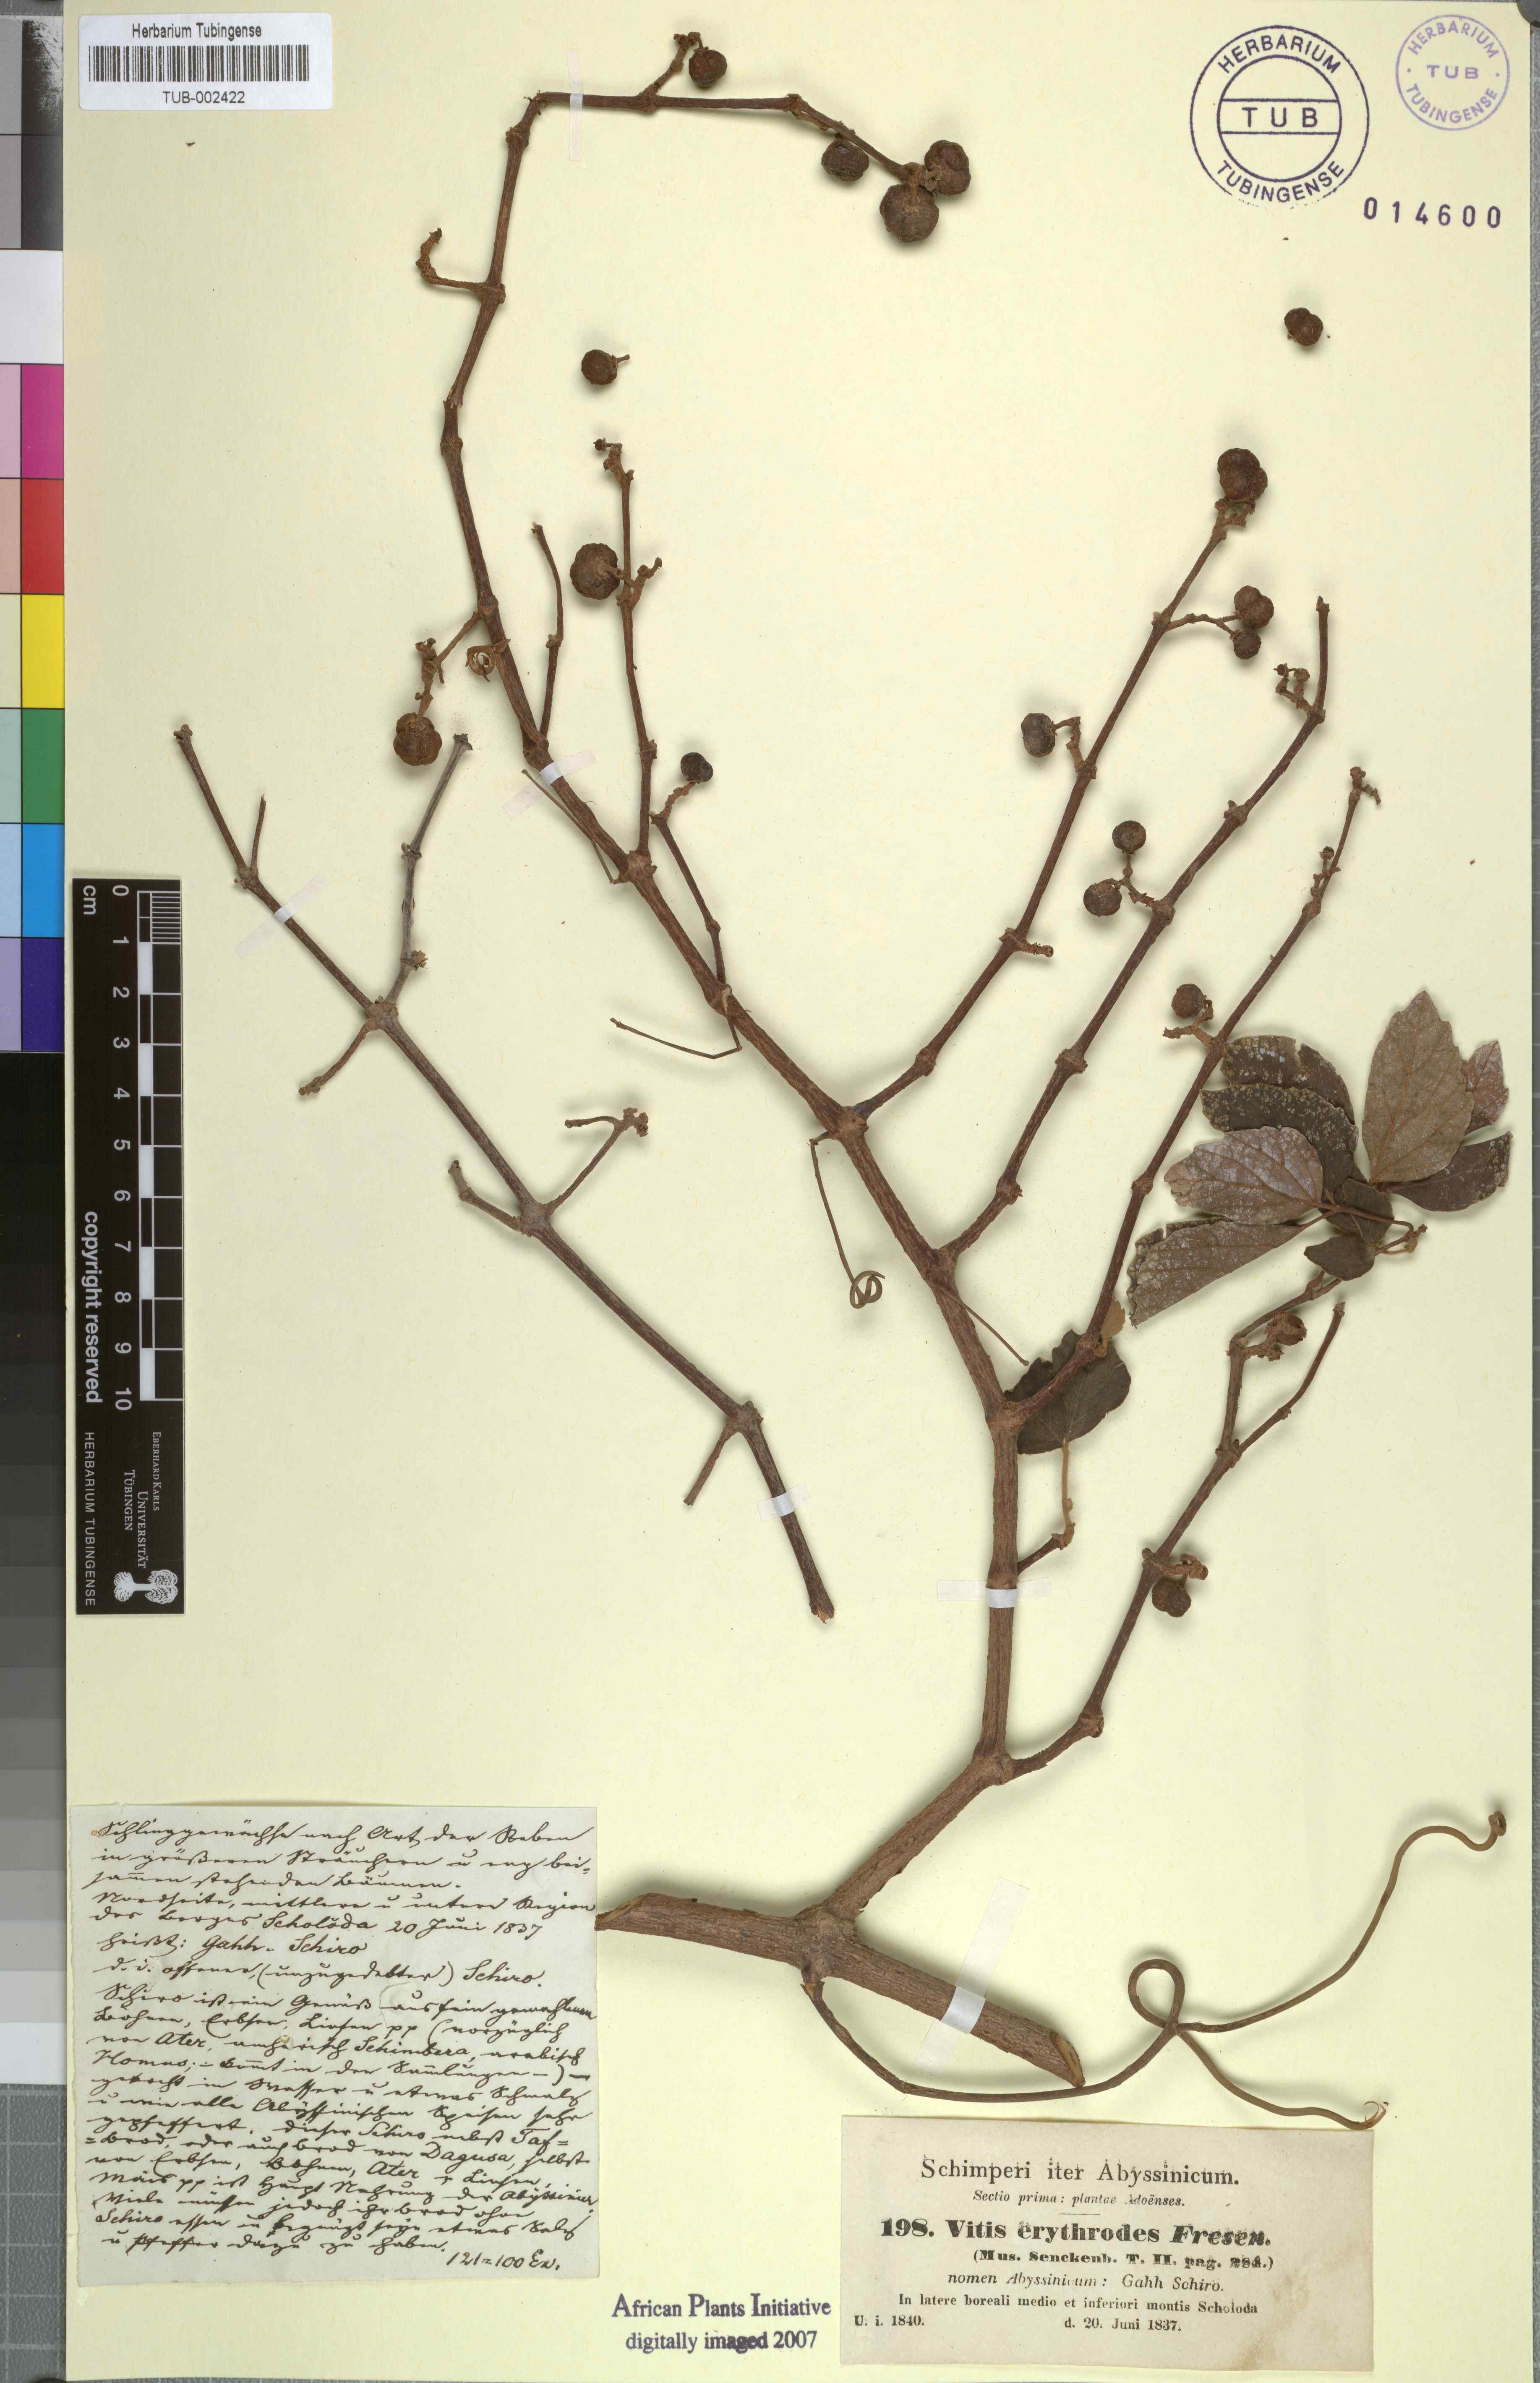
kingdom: Plantae
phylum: Tracheophyta
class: Magnoliopsida
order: Vitales
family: Vitaceae
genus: Rhoicissus
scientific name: Rhoicissus tridentata
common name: Common forest grape
